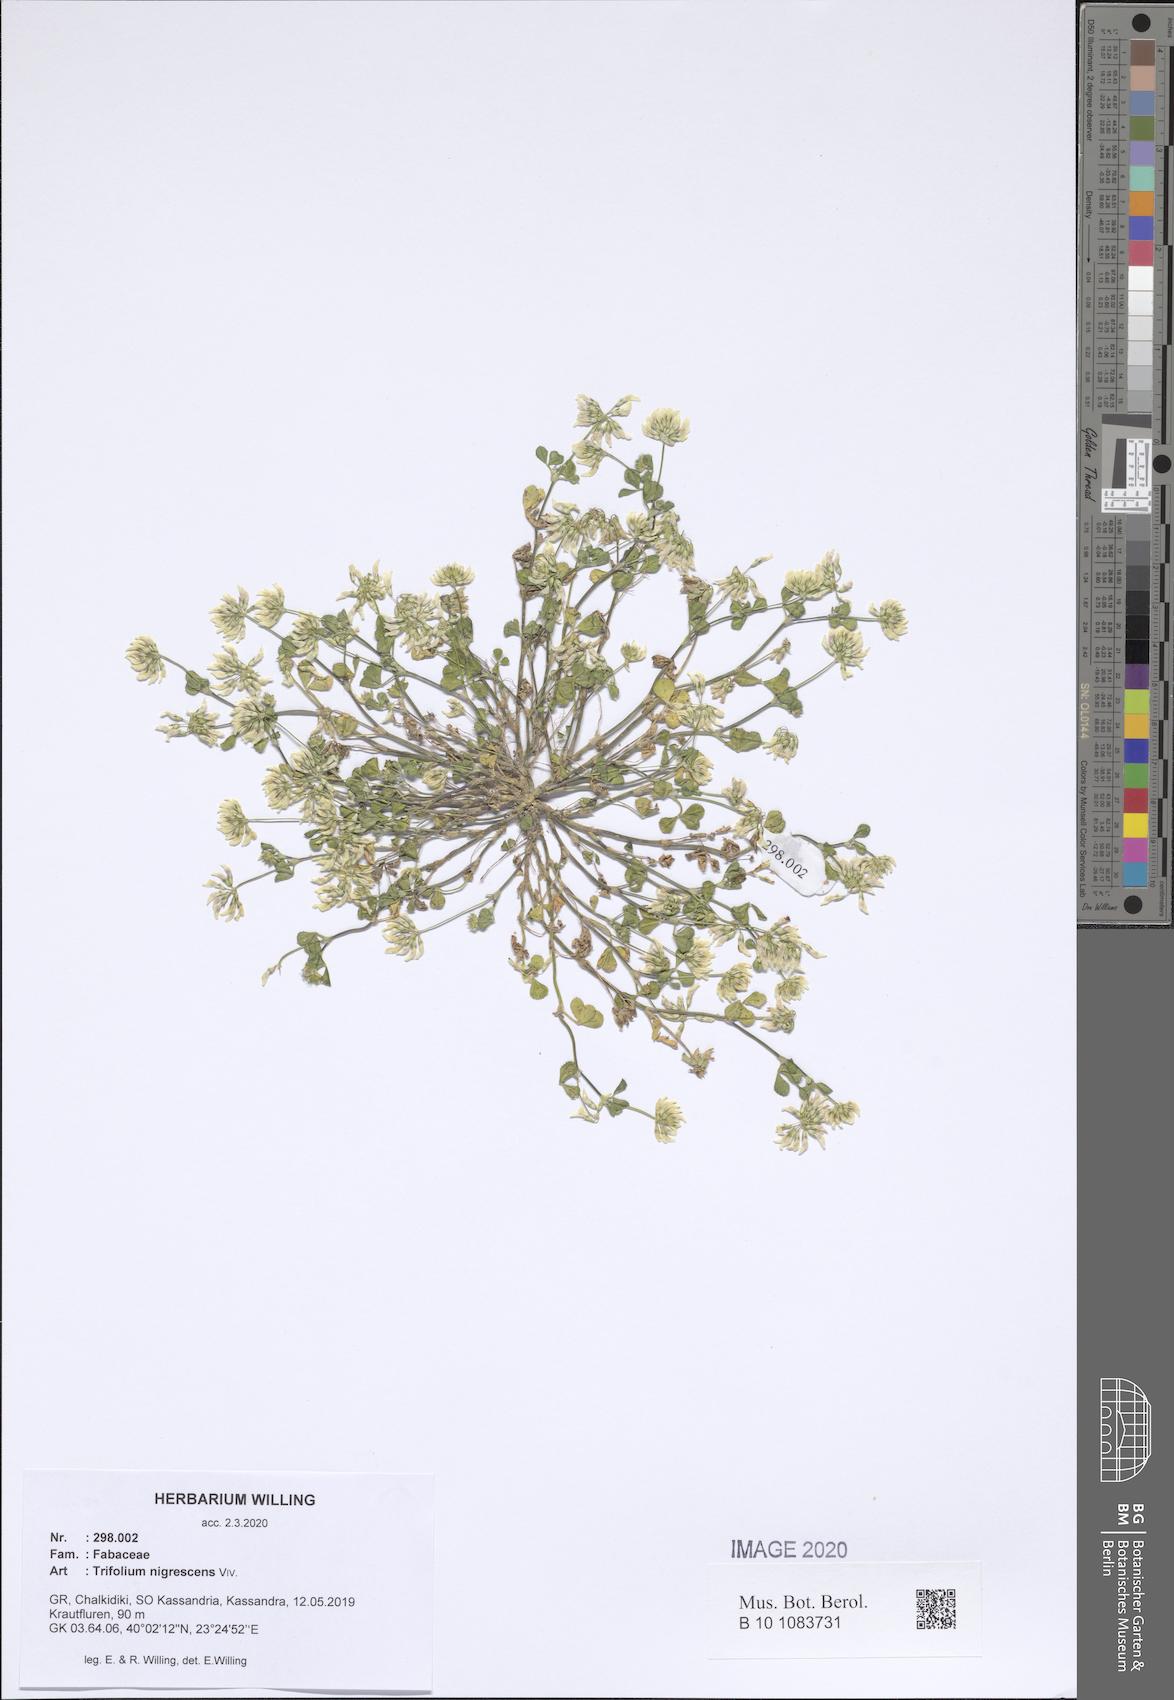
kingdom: Plantae
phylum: Tracheophyta
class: Magnoliopsida
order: Fabales
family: Fabaceae
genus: Trifolium
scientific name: Trifolium nigrescens
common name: Small white clover
